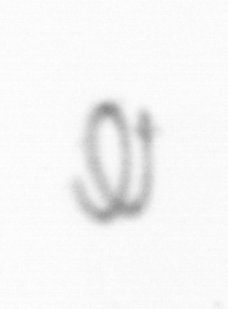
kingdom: Chromista
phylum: Ochrophyta
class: Bacillariophyceae
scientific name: Bacillariophyceae
